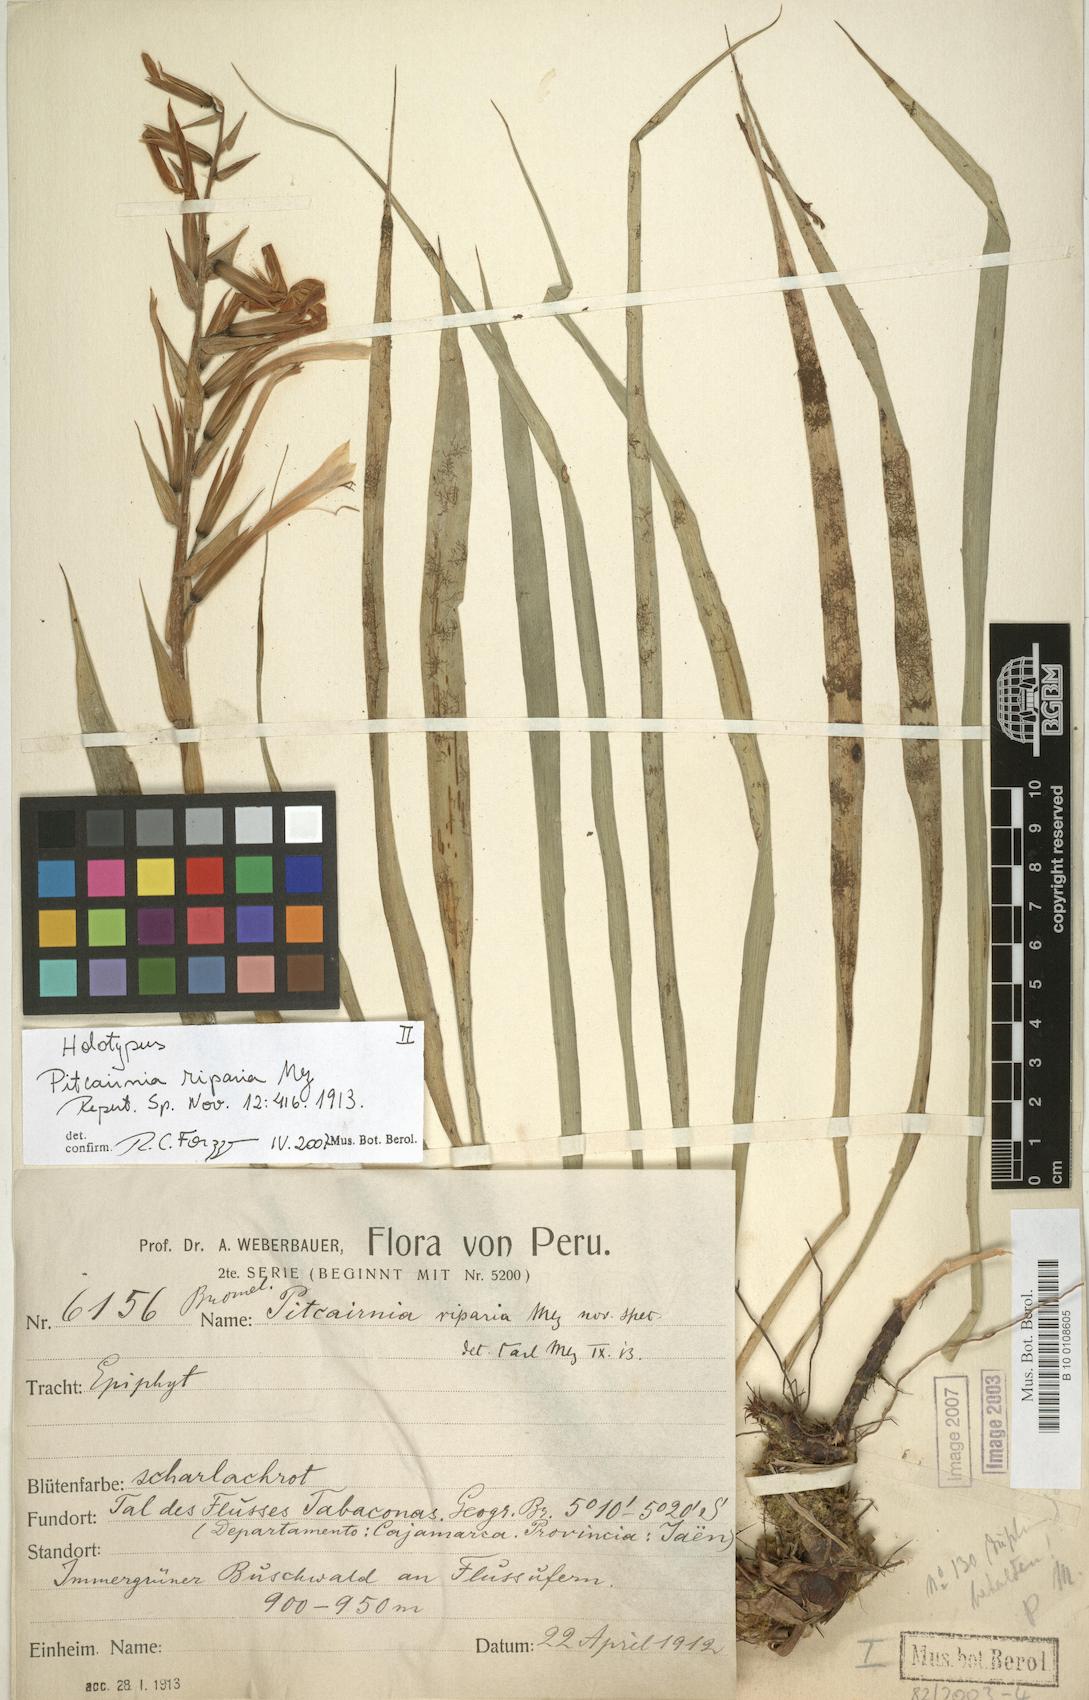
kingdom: Plantae
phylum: Tracheophyta
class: Liliopsida
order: Poales
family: Bromeliaceae
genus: Pitcairnia
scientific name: Pitcairnia riparia
